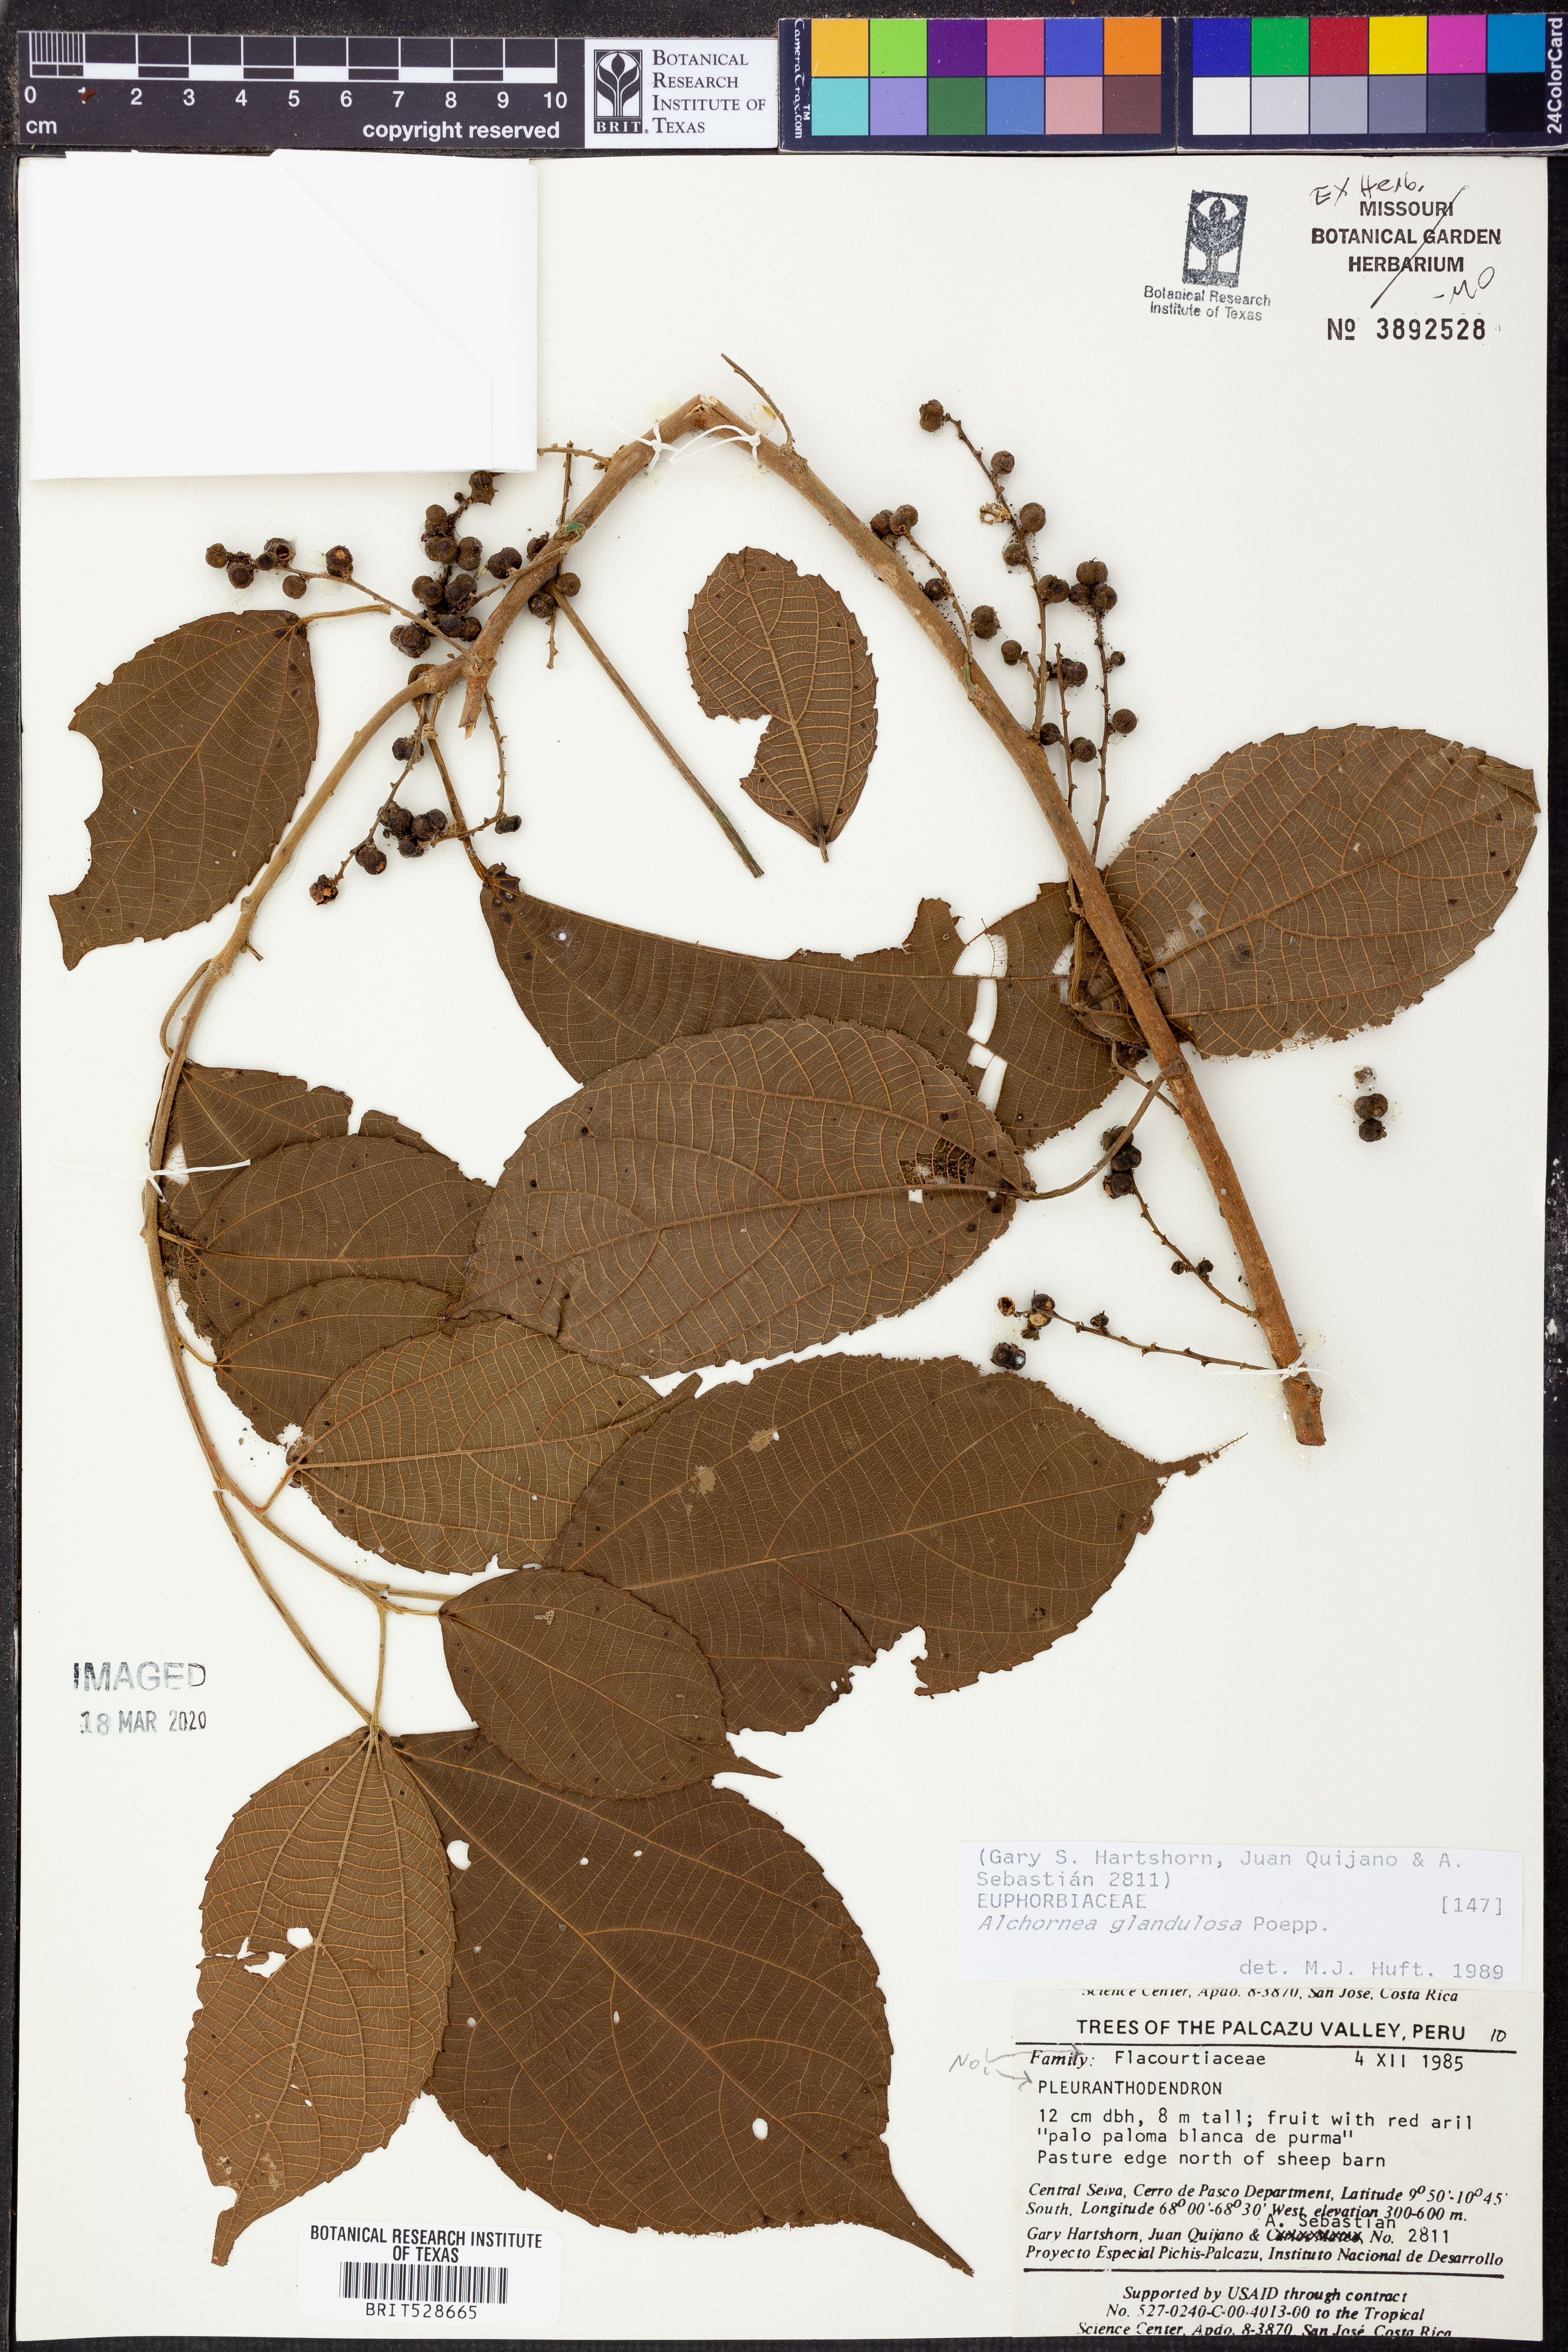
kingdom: Plantae
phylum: Tracheophyta
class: Magnoliopsida
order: Malpighiales
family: Euphorbiaceae
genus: Alchornea
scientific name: Alchornea glandulosa
